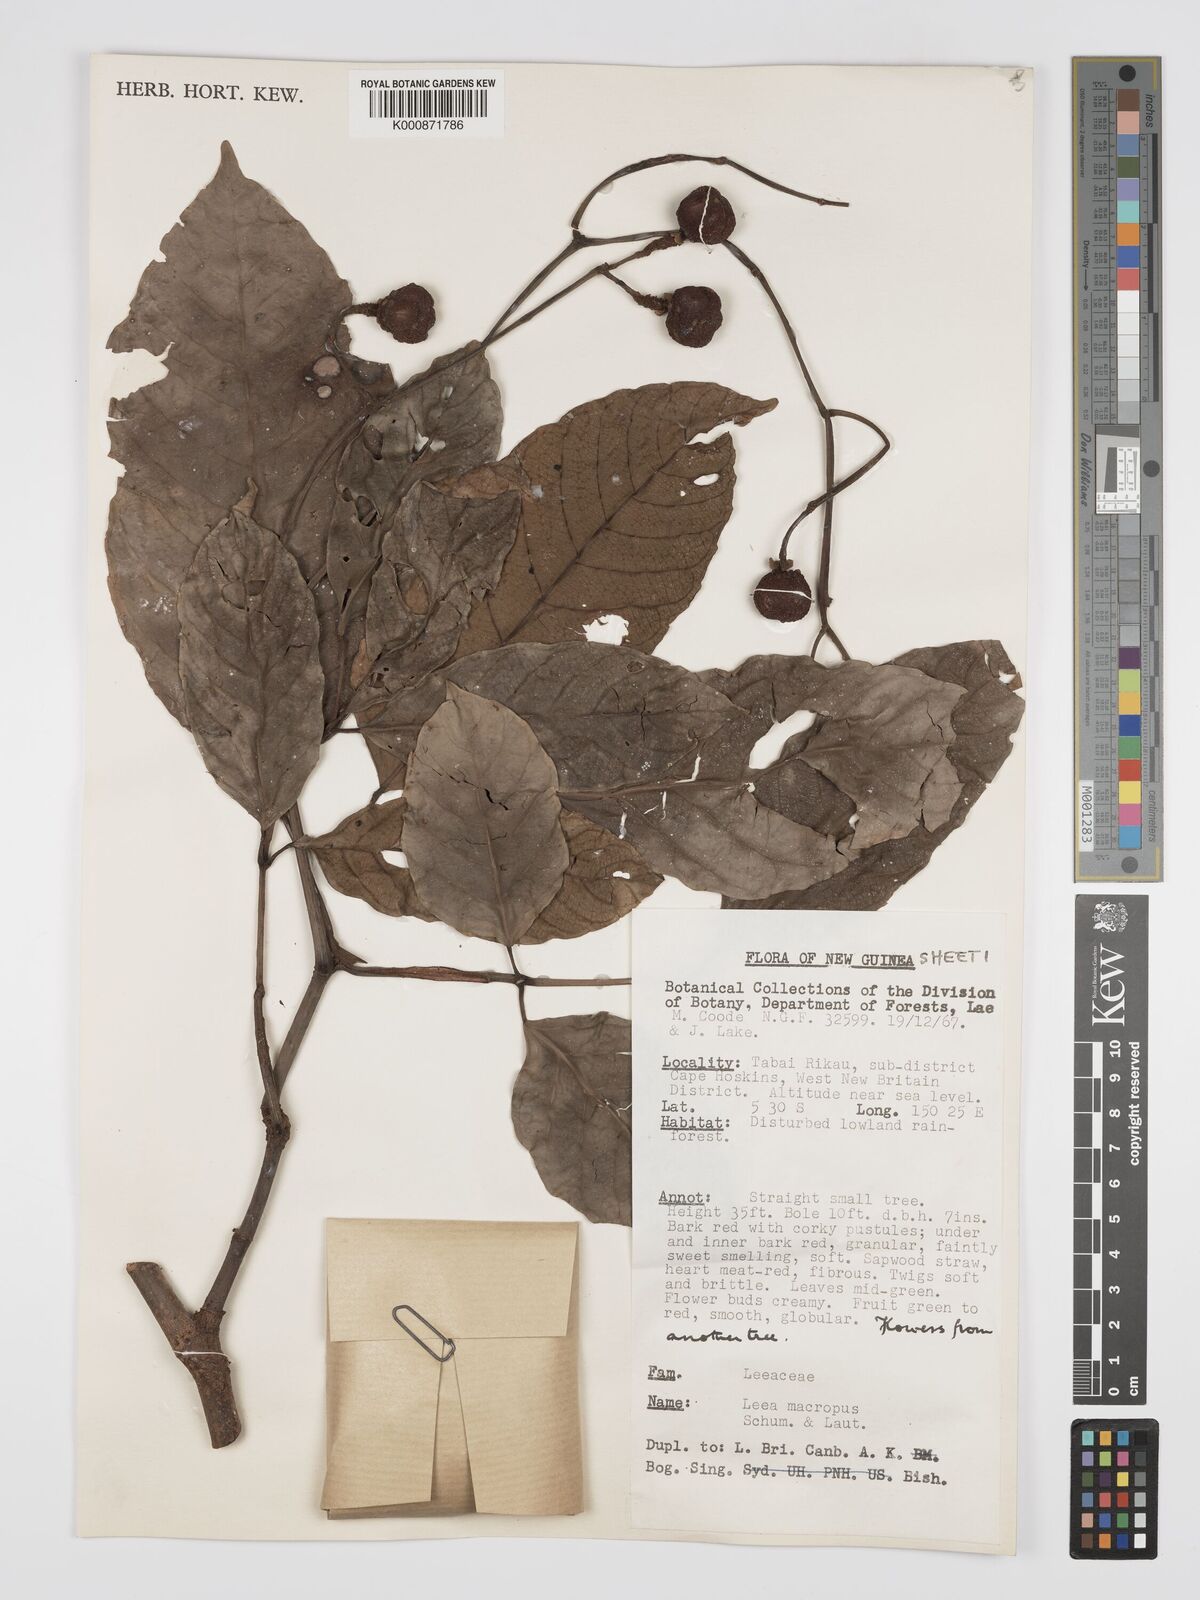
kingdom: Plantae
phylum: Tracheophyta
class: Magnoliopsida
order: Vitales
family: Vitaceae
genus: Leea
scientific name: Leea macropus
